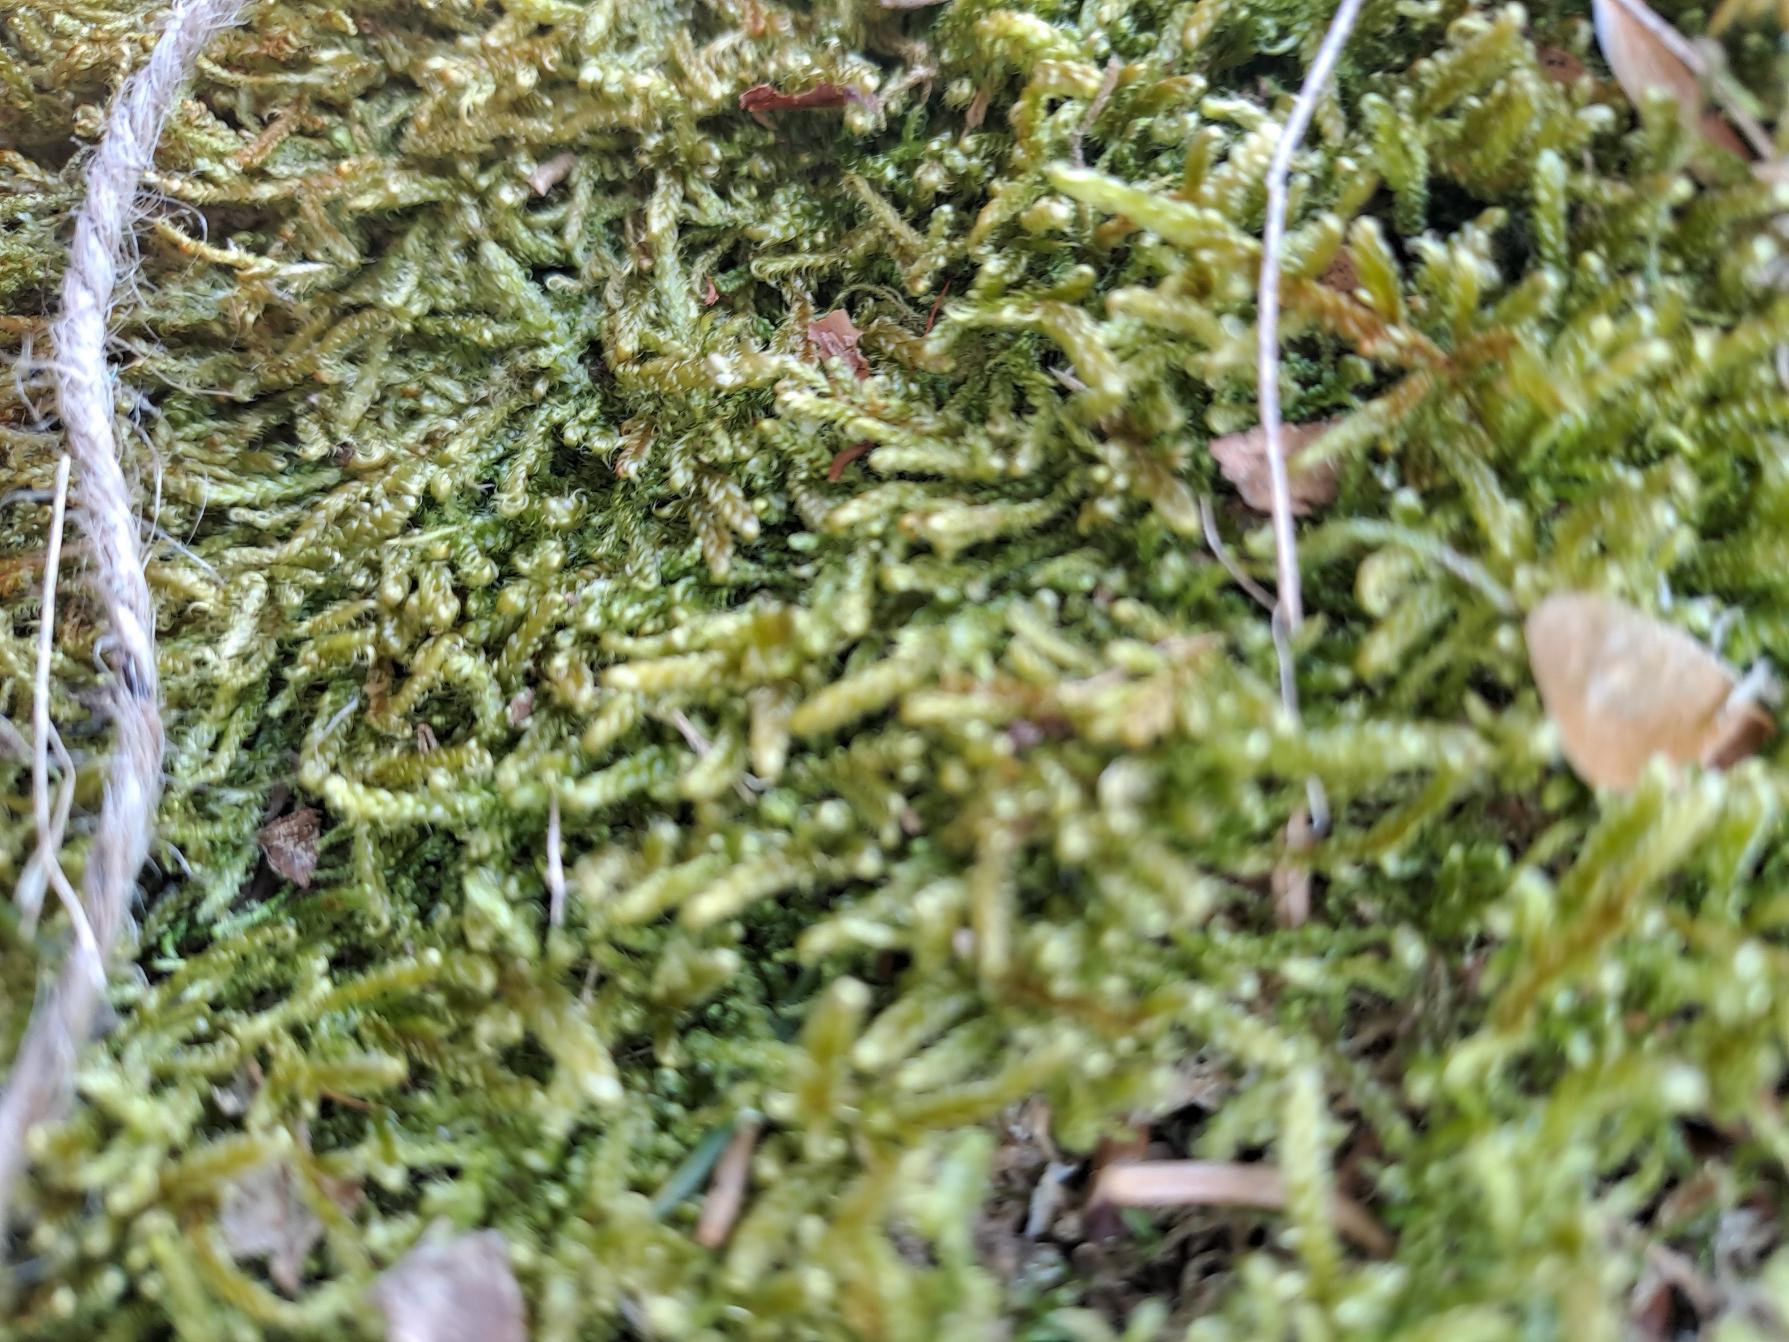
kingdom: Plantae
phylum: Bryophyta
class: Bryopsida
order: Hypnales
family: Hypnaceae
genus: Hypnum
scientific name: Hypnum cupressiforme
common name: Almindelig cypresmos
